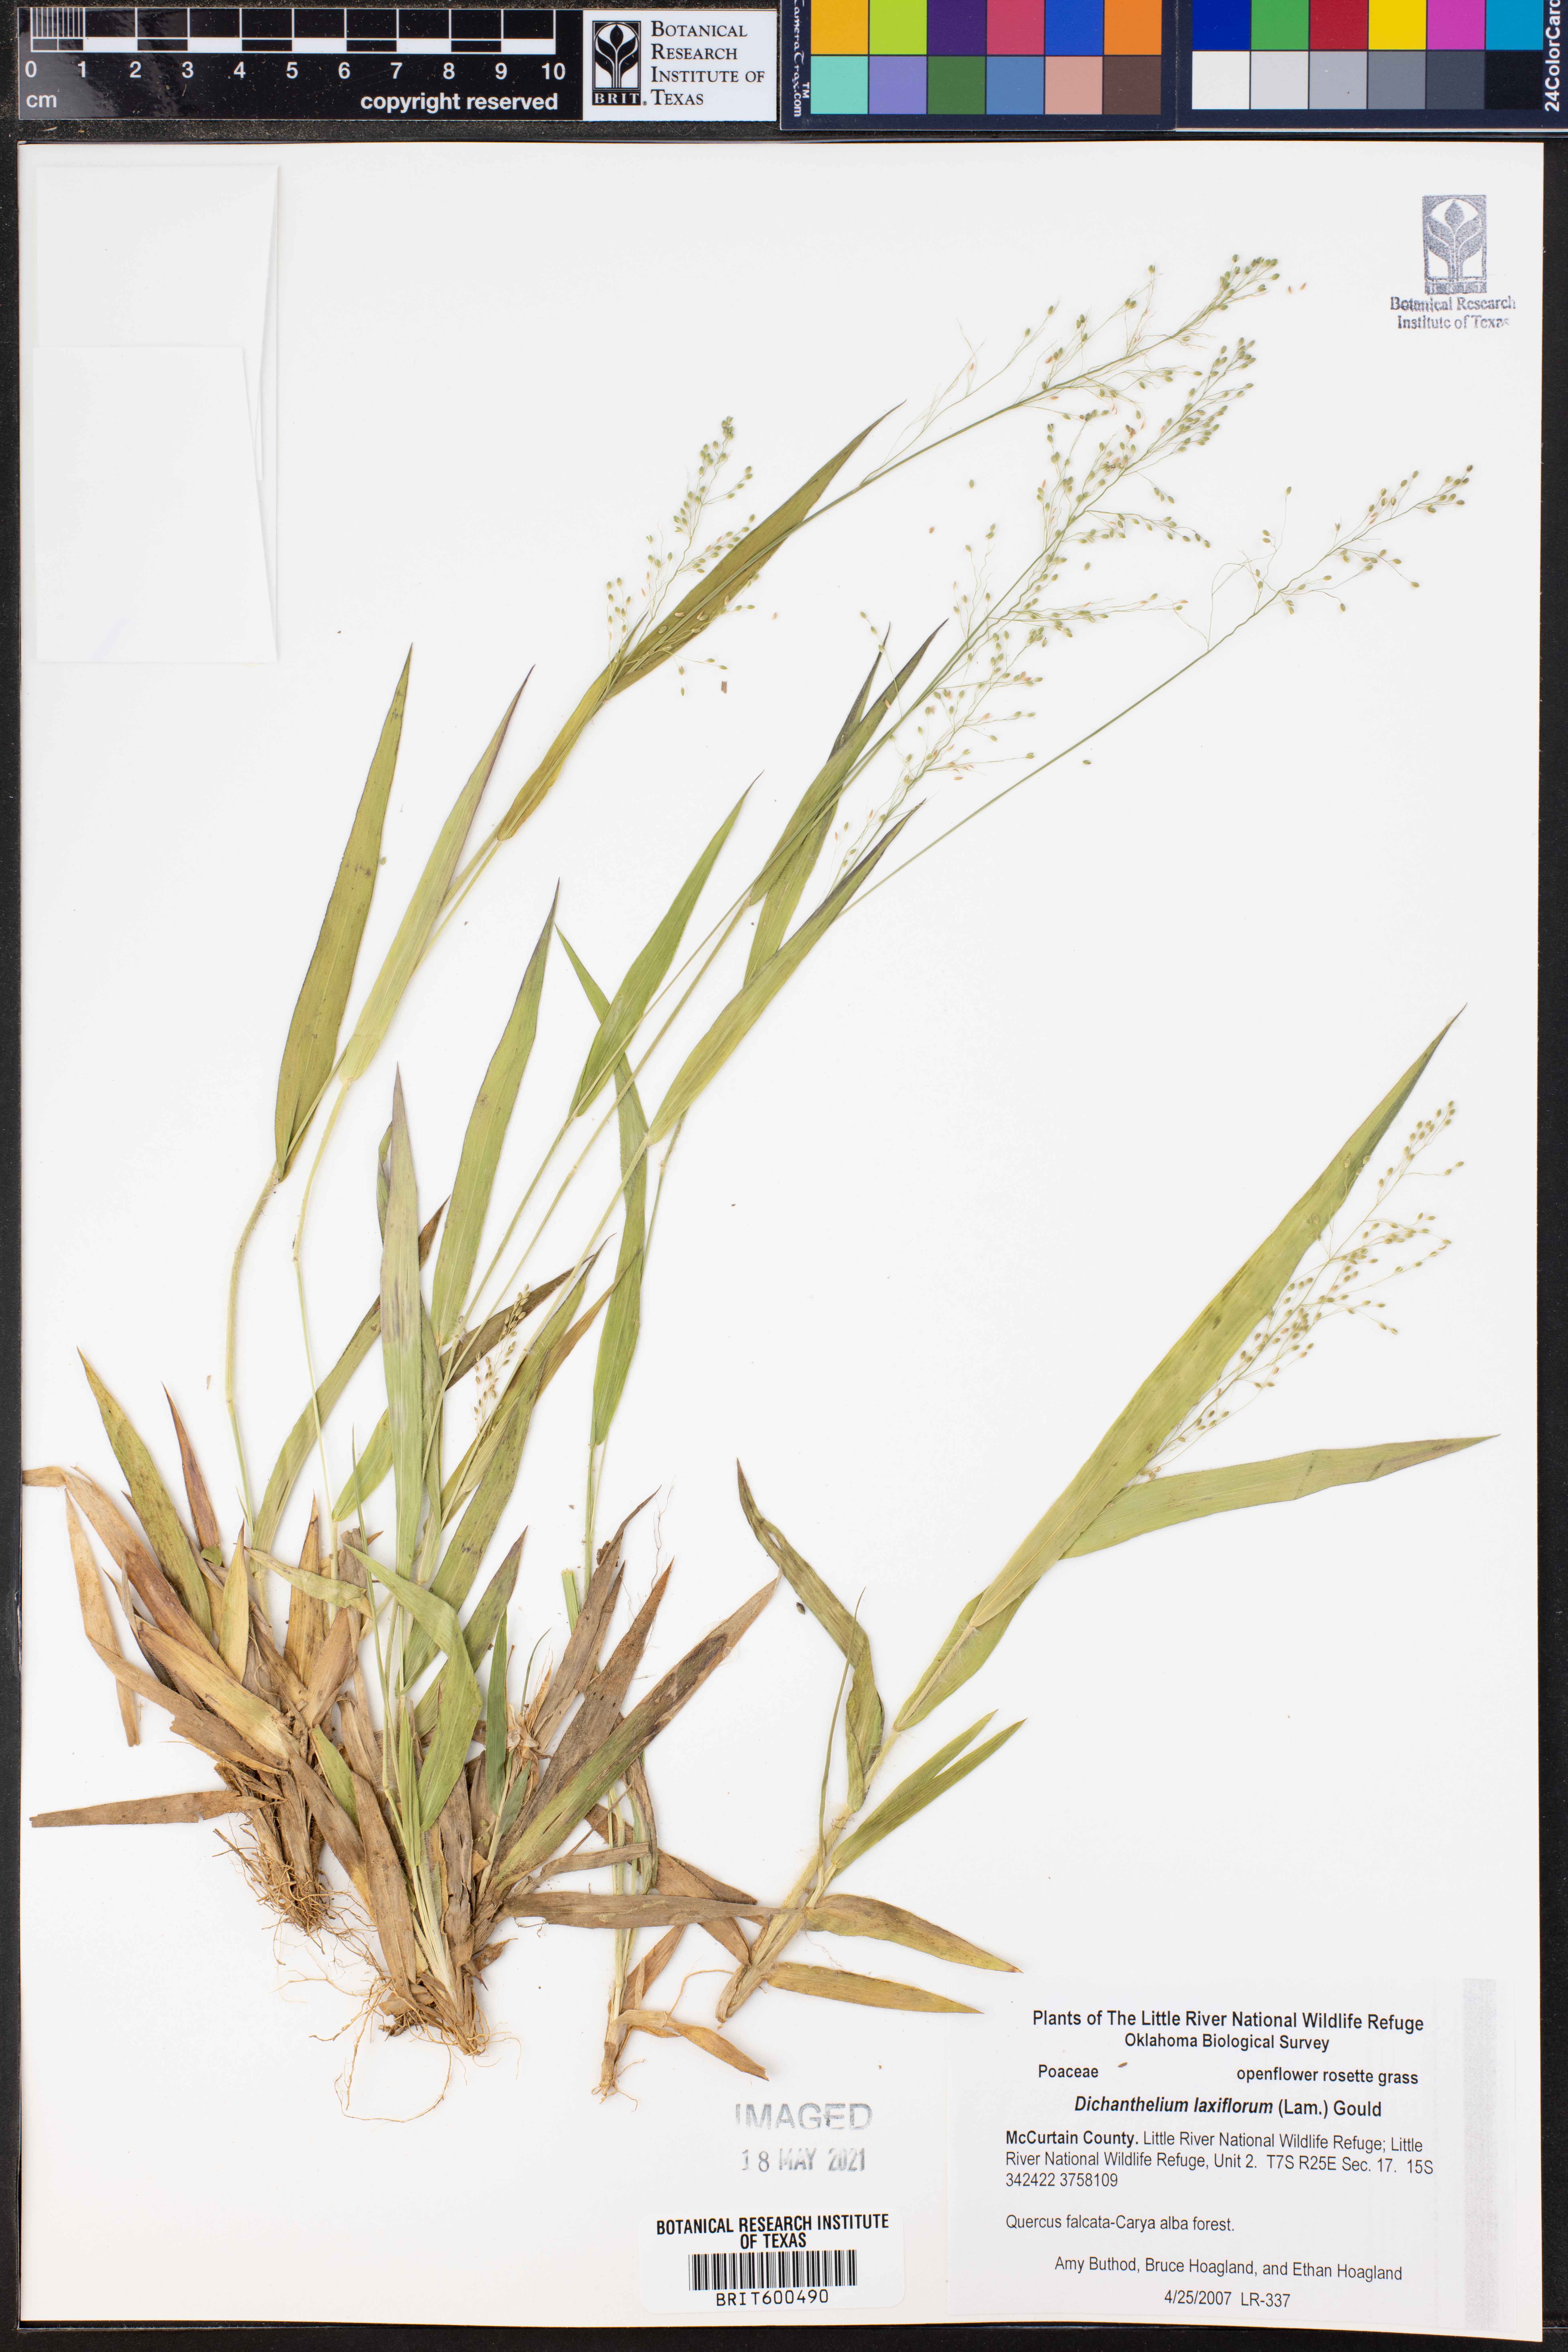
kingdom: Plantae
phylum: Tracheophyta
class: Liliopsida
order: Poales
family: Poaceae
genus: Dichanthelium
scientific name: Dichanthelium laxiflorum
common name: Soft-tuft panic grass
